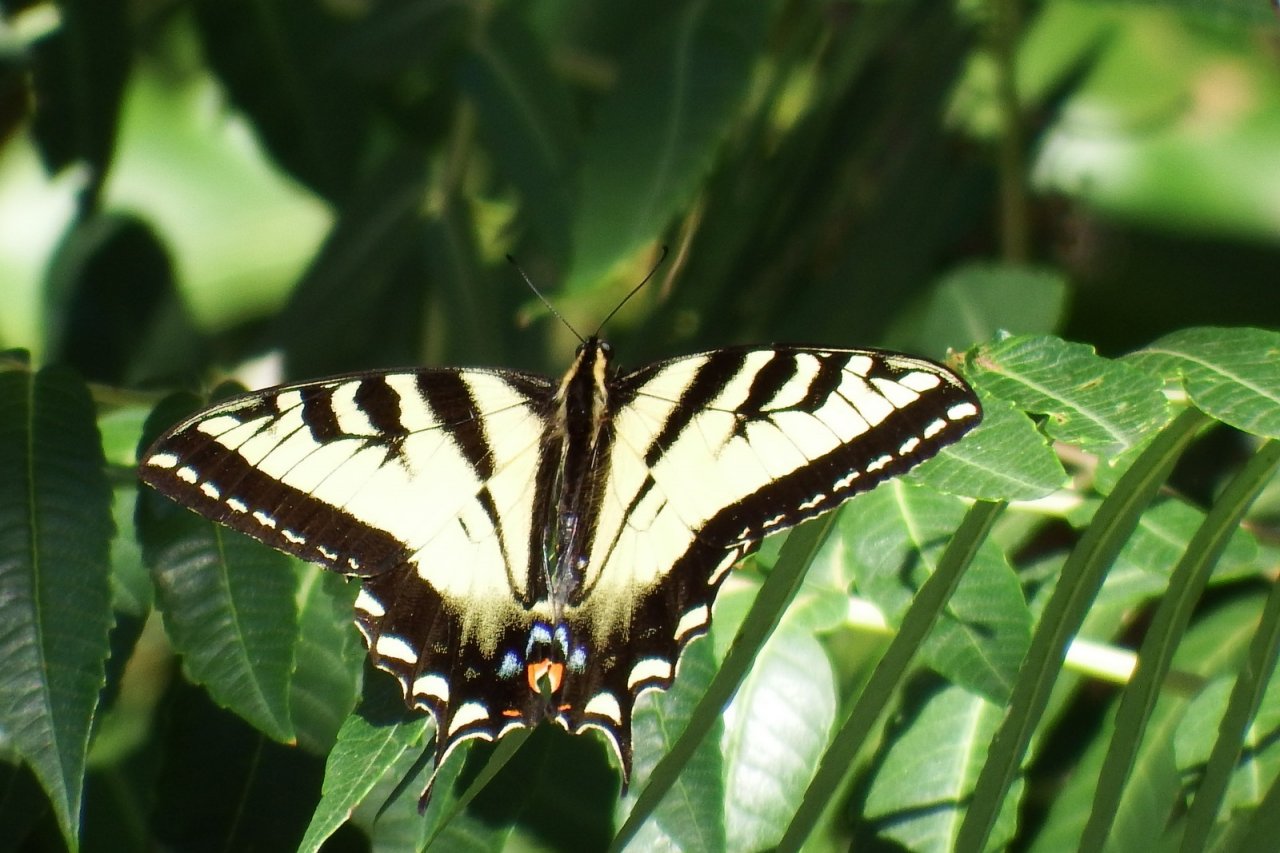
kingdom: Animalia
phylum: Arthropoda
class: Insecta
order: Lepidoptera
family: Papilionidae
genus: Pterourus
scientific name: Pterourus rutulus
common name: Western Tiger Swallowtail
